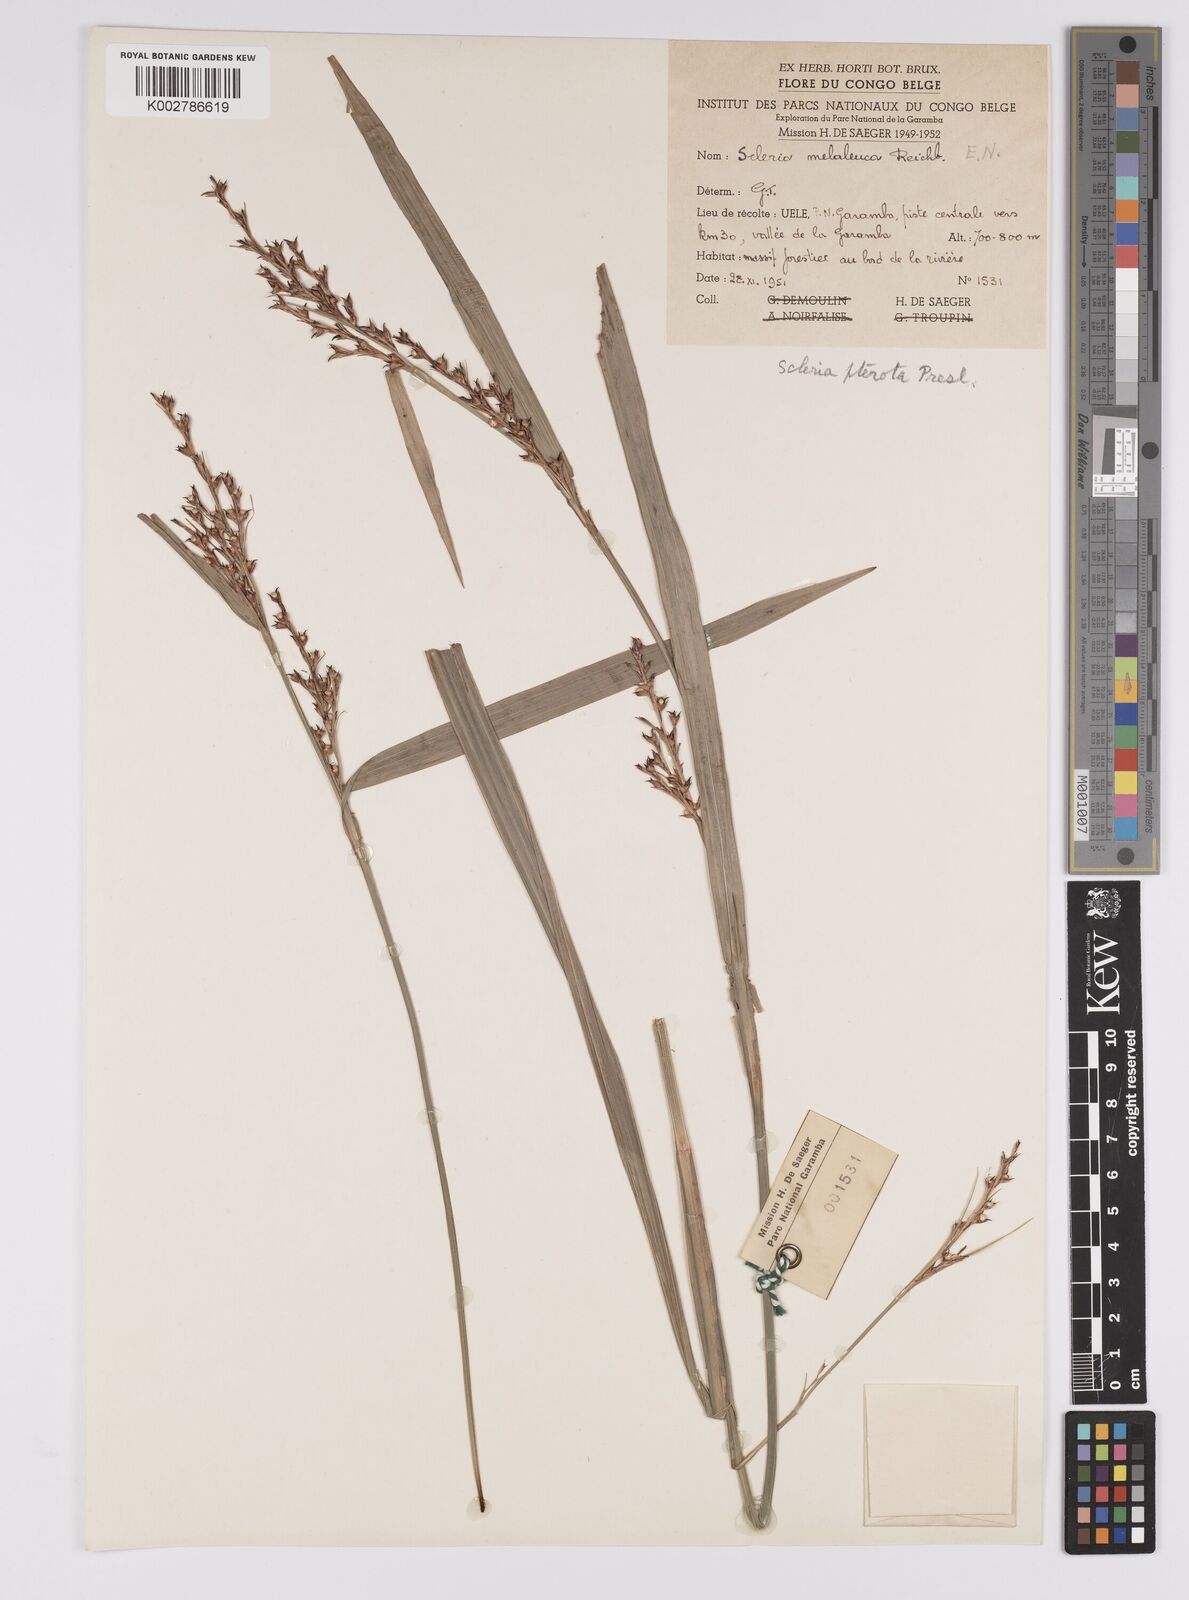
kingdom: Plantae
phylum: Tracheophyta
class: Liliopsida
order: Poales
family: Cyperaceae
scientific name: Cyperaceae
